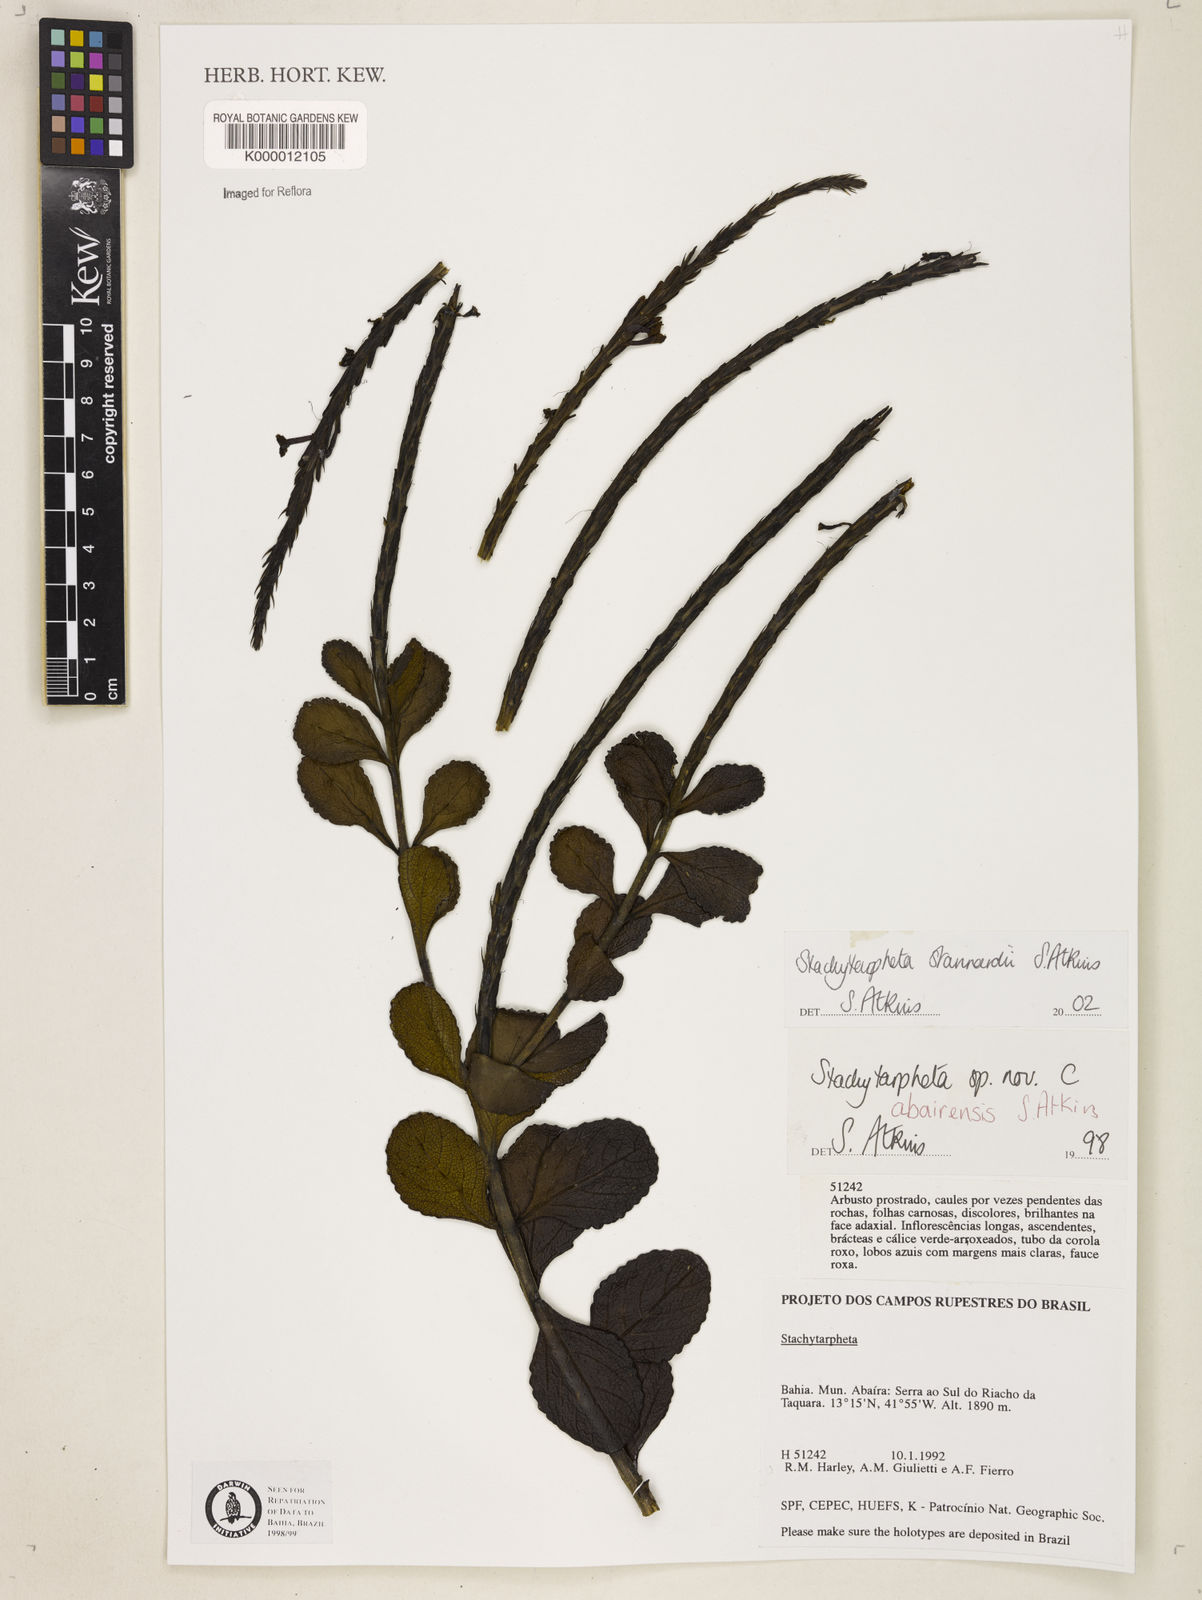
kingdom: Plantae
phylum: Tracheophyta
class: Magnoliopsida
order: Lamiales
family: Verbenaceae
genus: Stachytarpheta
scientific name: Stachytarpheta
